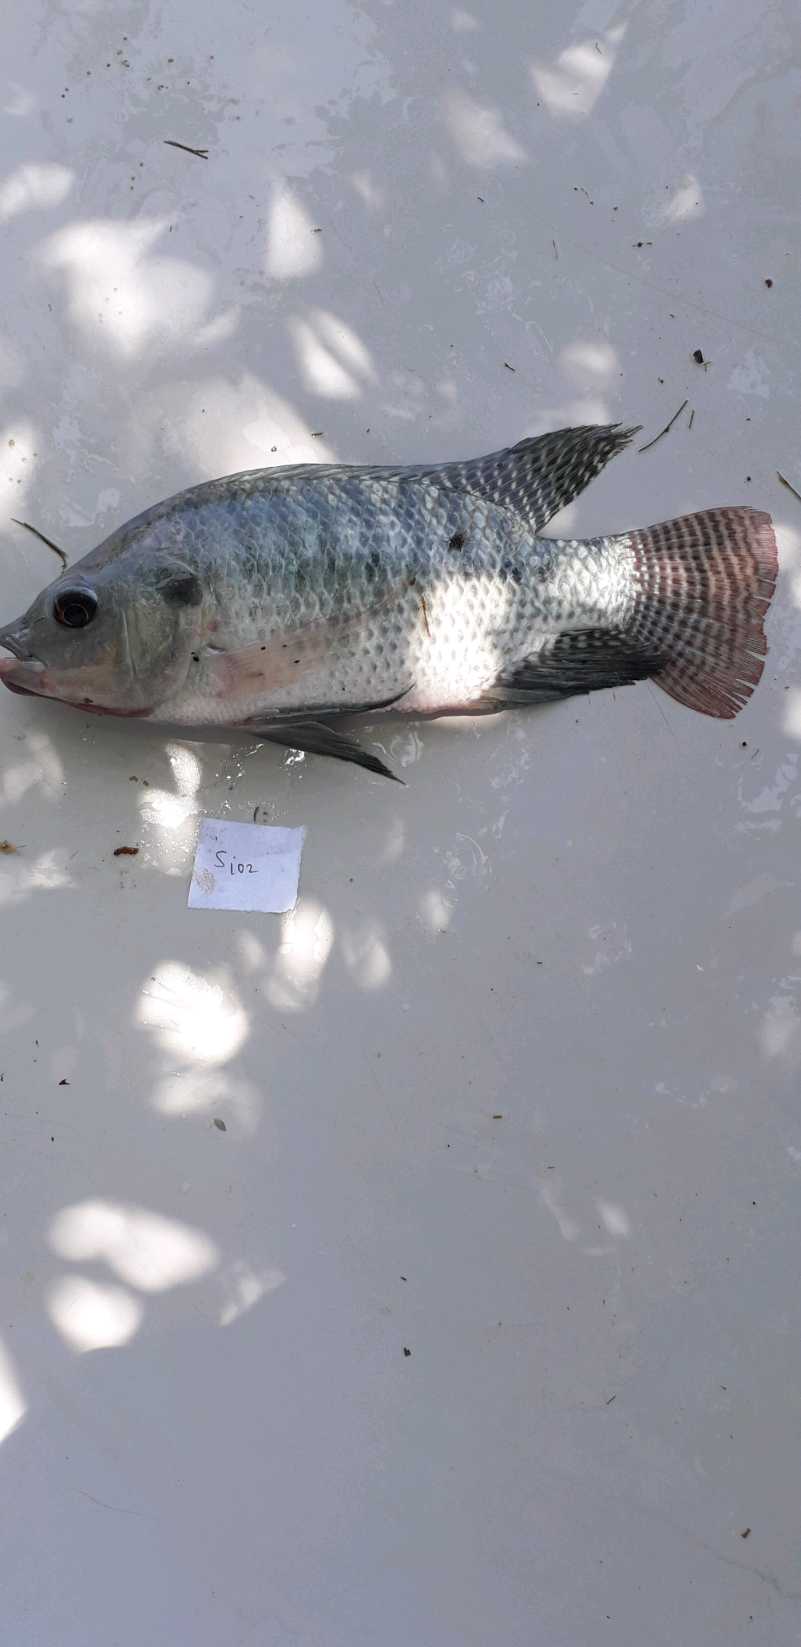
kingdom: Animalia
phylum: Chordata
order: Perciformes
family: Cichlidae
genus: Oreochromis
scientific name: Oreochromis niloticus
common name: Nile tilapia
